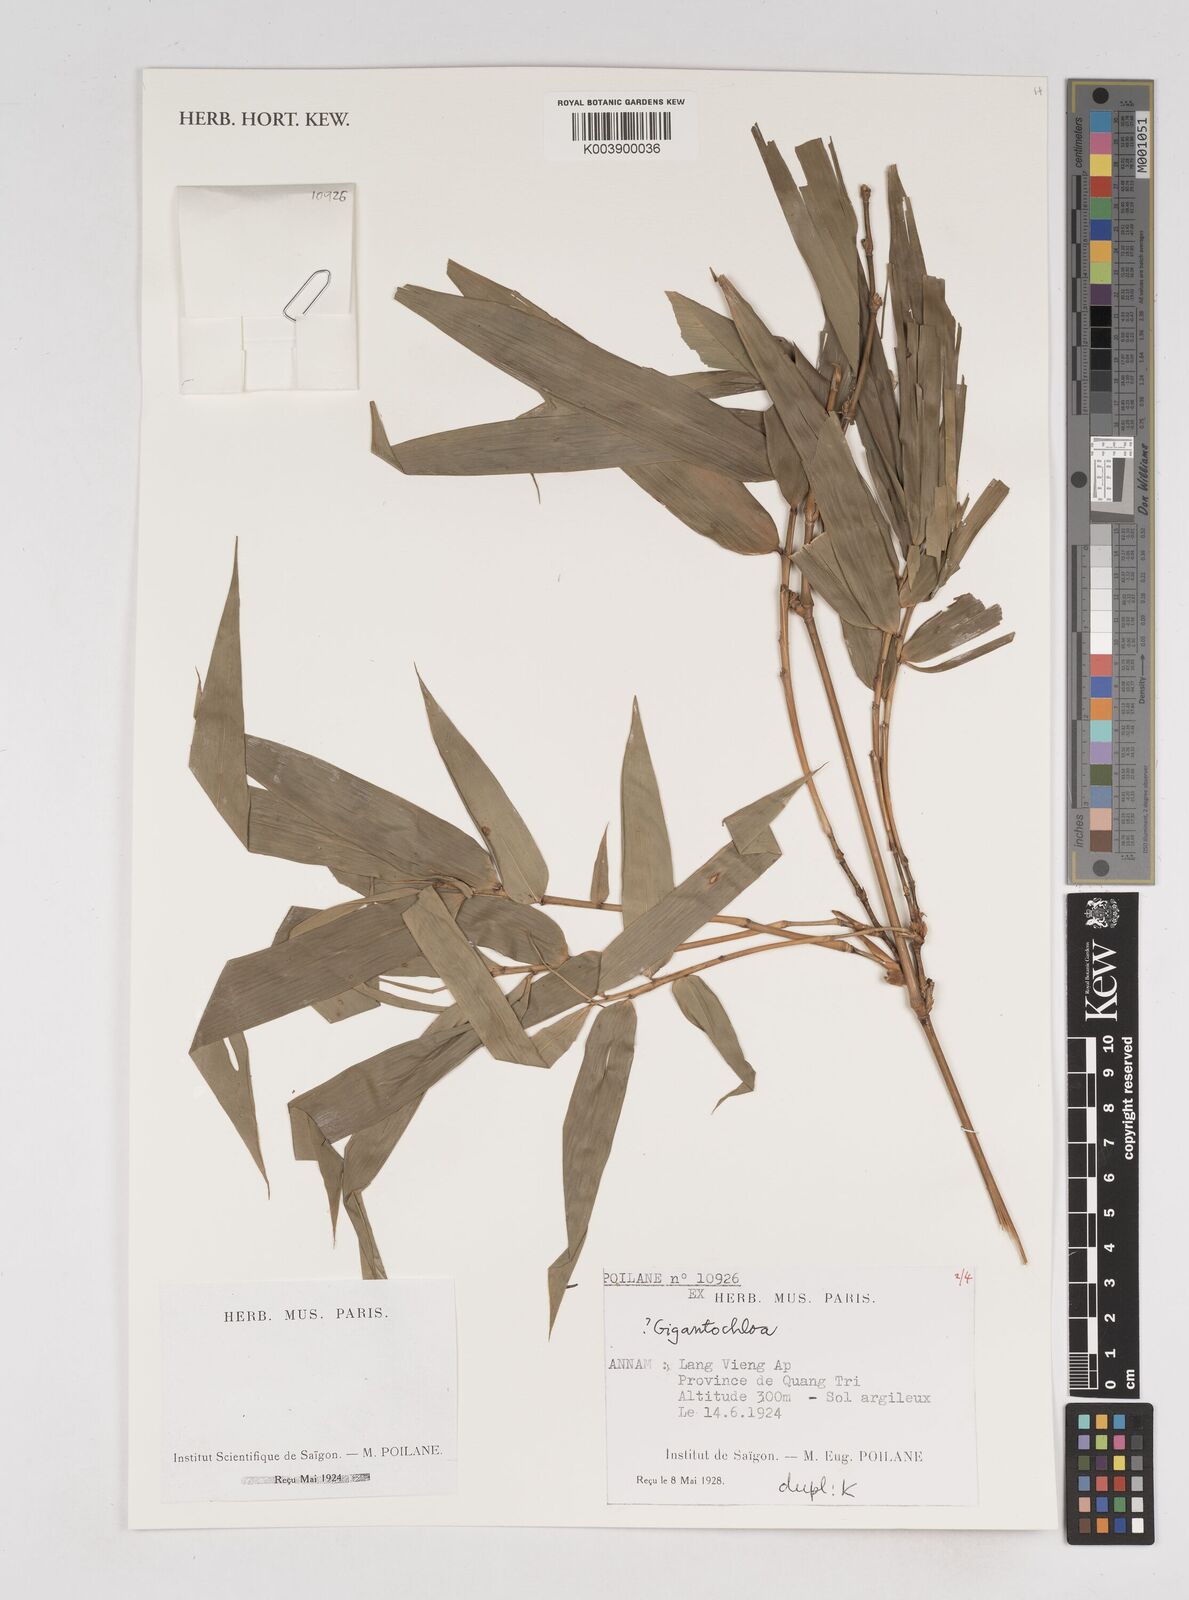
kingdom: Plantae
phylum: Tracheophyta
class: Liliopsida
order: Poales
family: Poaceae
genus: Gigantochloa
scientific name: Gigantochloa
